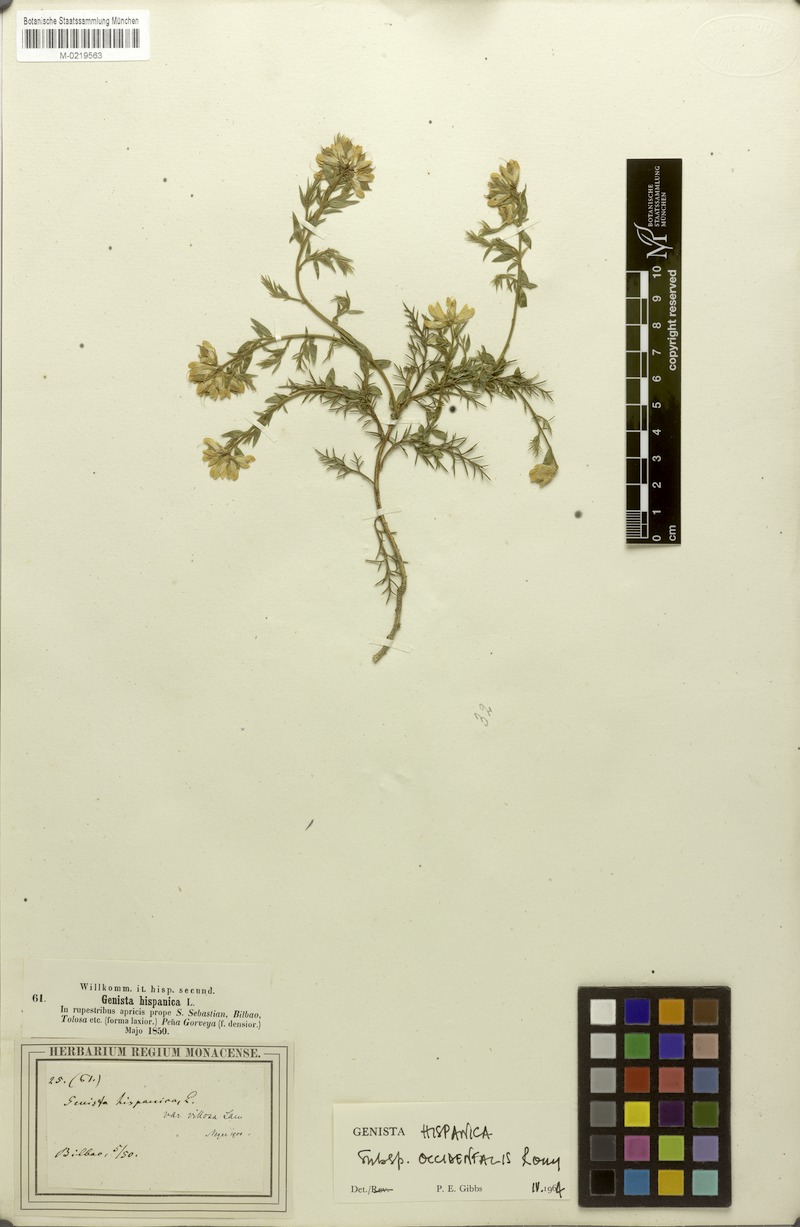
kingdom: Plantae
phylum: Tracheophyta
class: Magnoliopsida
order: Fabales
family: Fabaceae
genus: Genista
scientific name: Genista hispanica
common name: Spanish gorse
